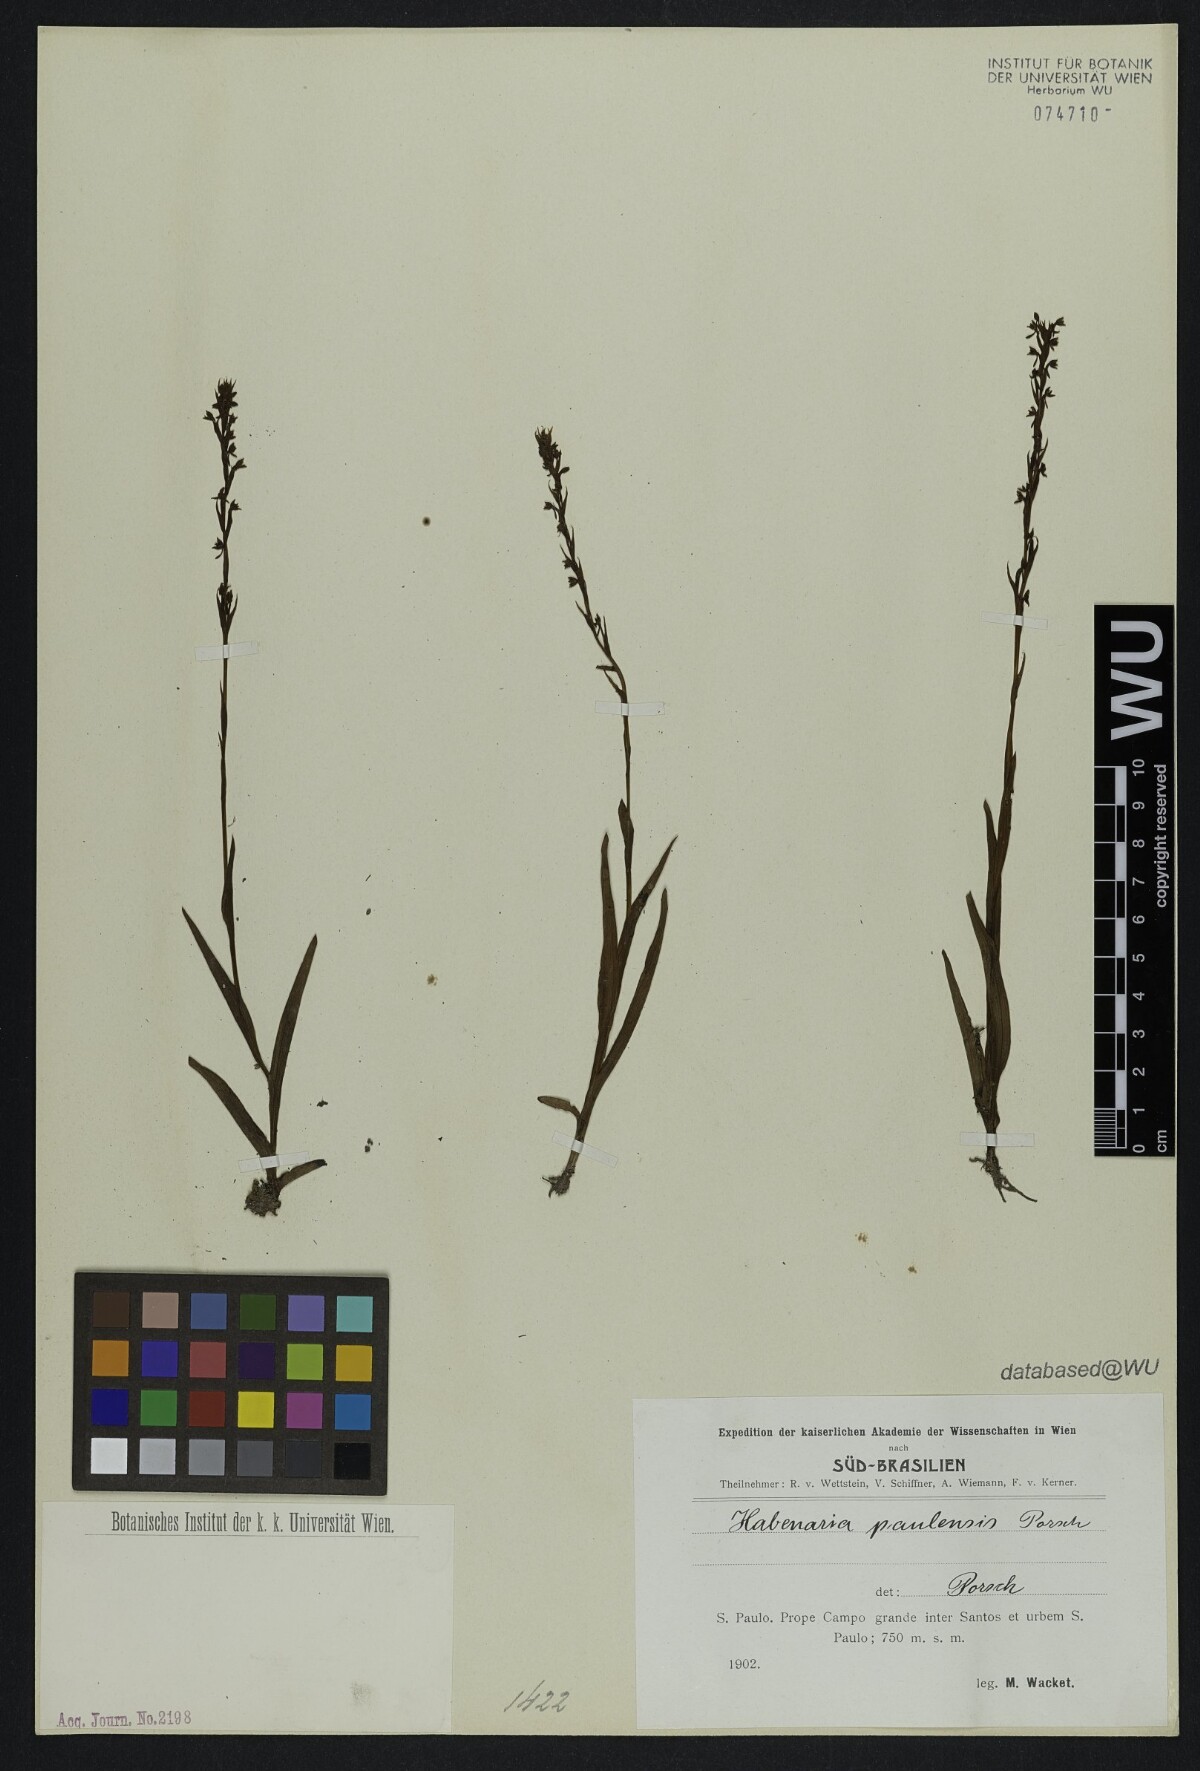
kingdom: Plantae
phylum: Tracheophyta
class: Liliopsida
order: Asparagales
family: Orchidaceae
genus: Habenaria
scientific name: Habenaria paulensis
